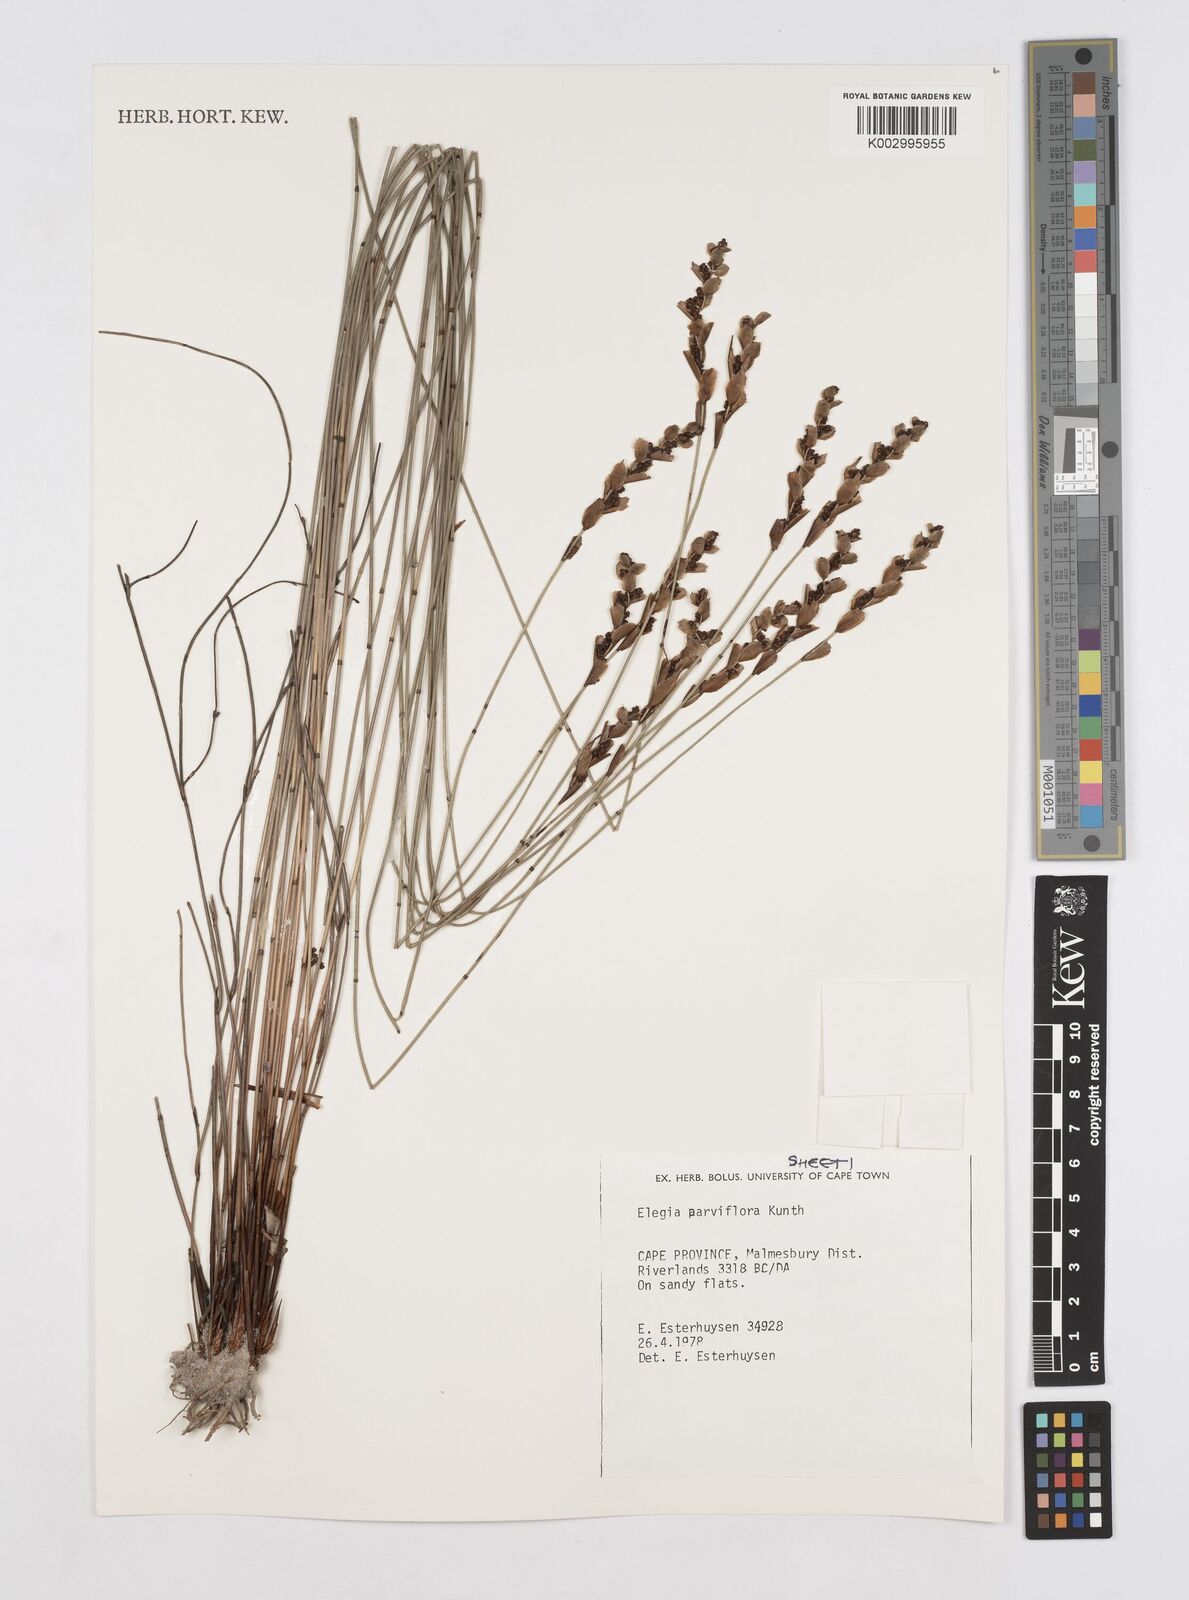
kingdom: Plantae
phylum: Tracheophyta
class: Liliopsida
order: Poales
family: Restionaceae
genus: Cannomois
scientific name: Cannomois parviflora
